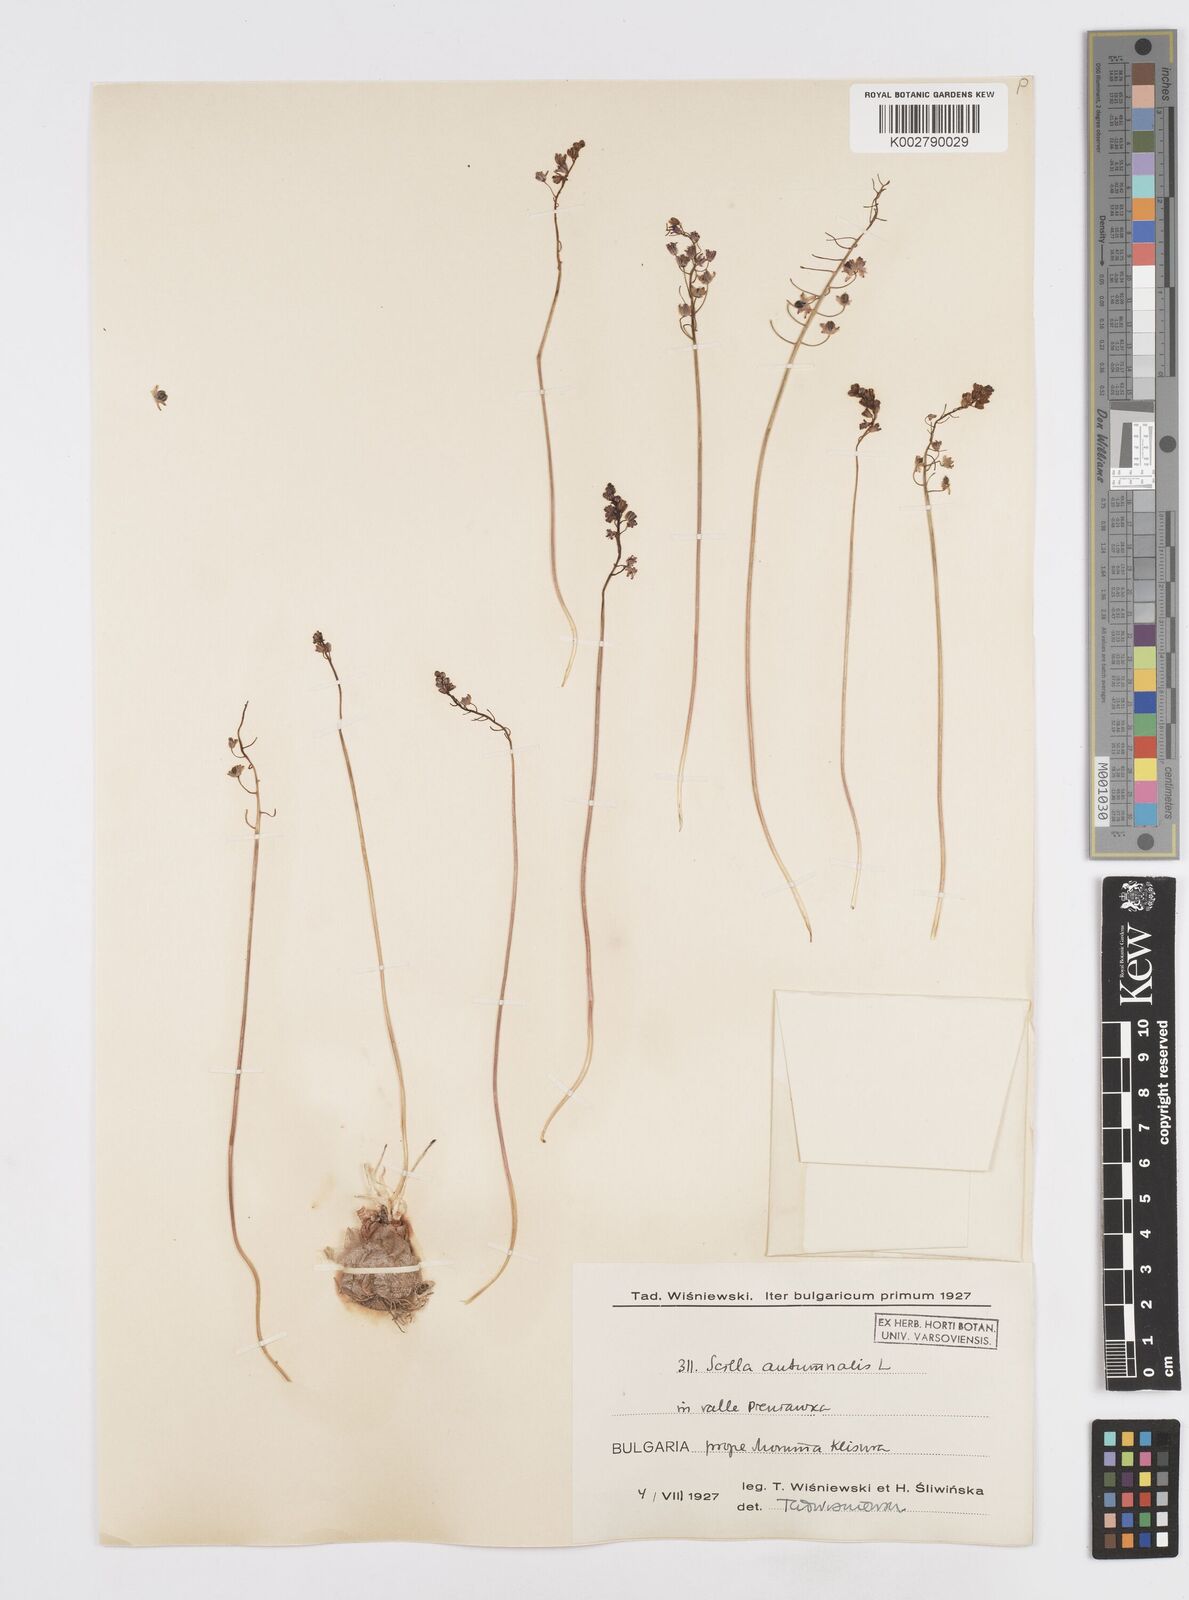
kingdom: Plantae
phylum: Tracheophyta
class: Liliopsida
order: Asparagales
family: Asparagaceae
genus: Prospero
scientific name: Prospero autumnale
